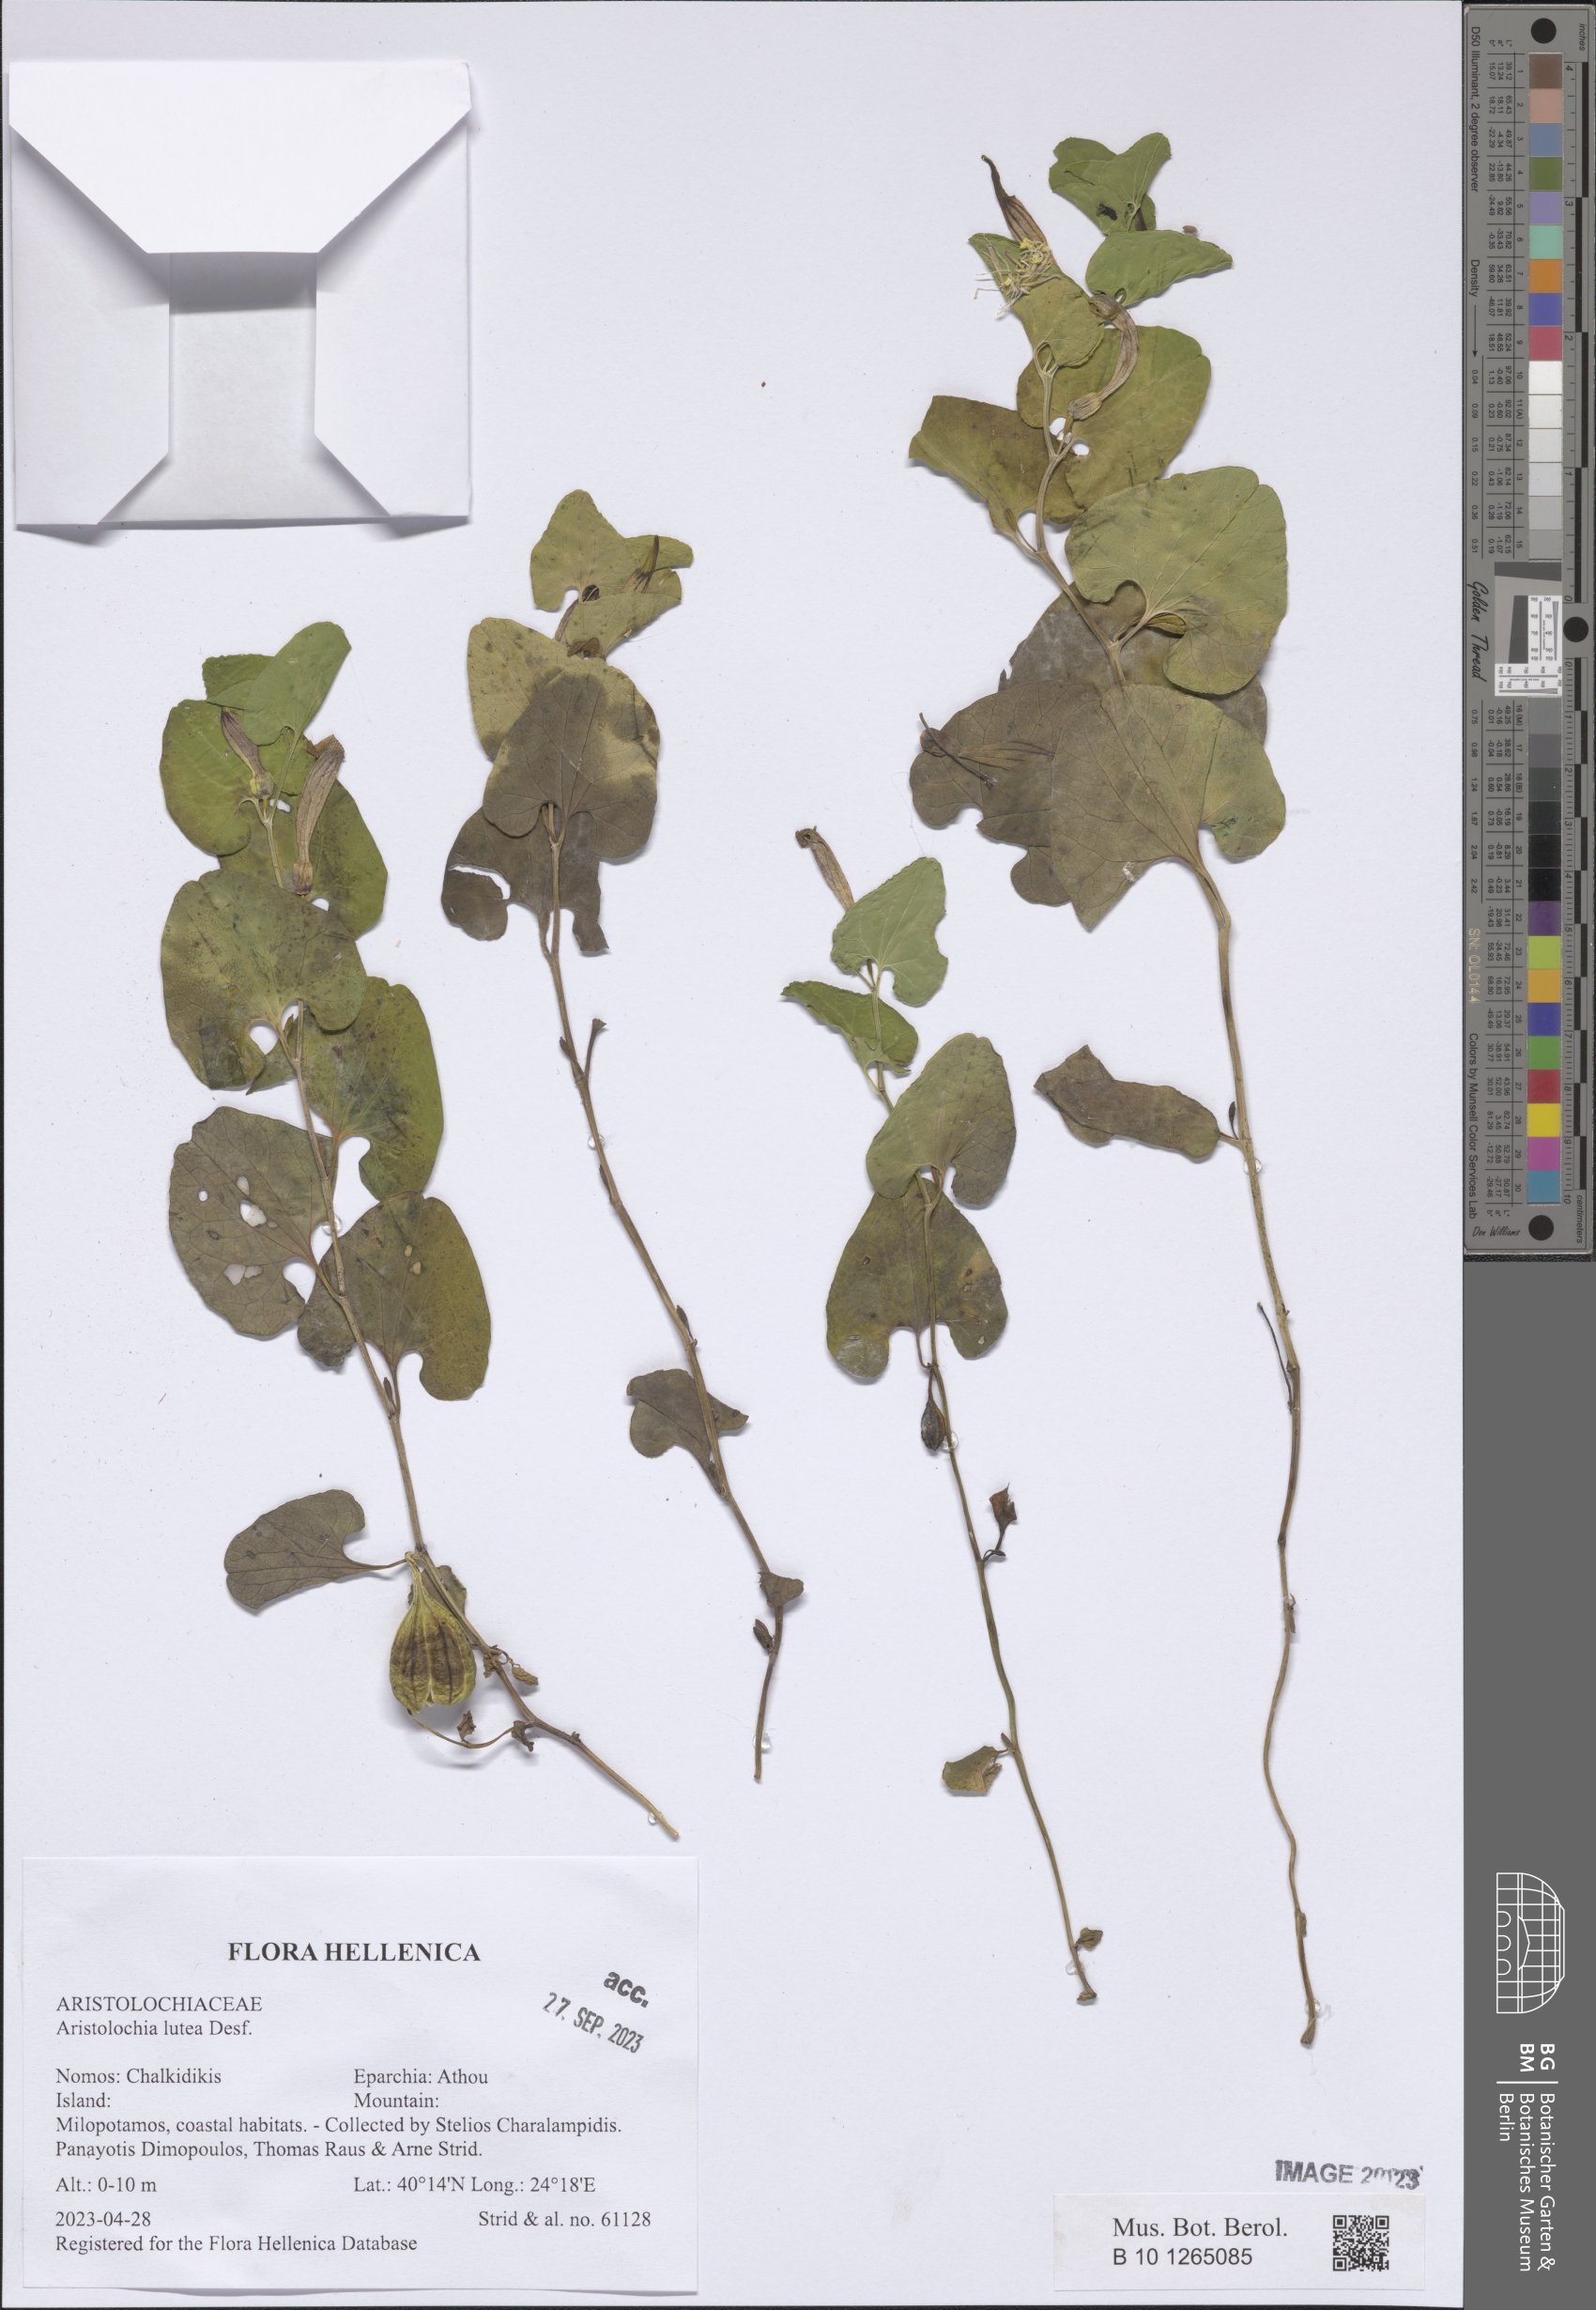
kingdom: Plantae
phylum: Tracheophyta
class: Magnoliopsida
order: Piperales
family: Aristolochiaceae
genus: Aristolochia
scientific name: Aristolochia lutea
